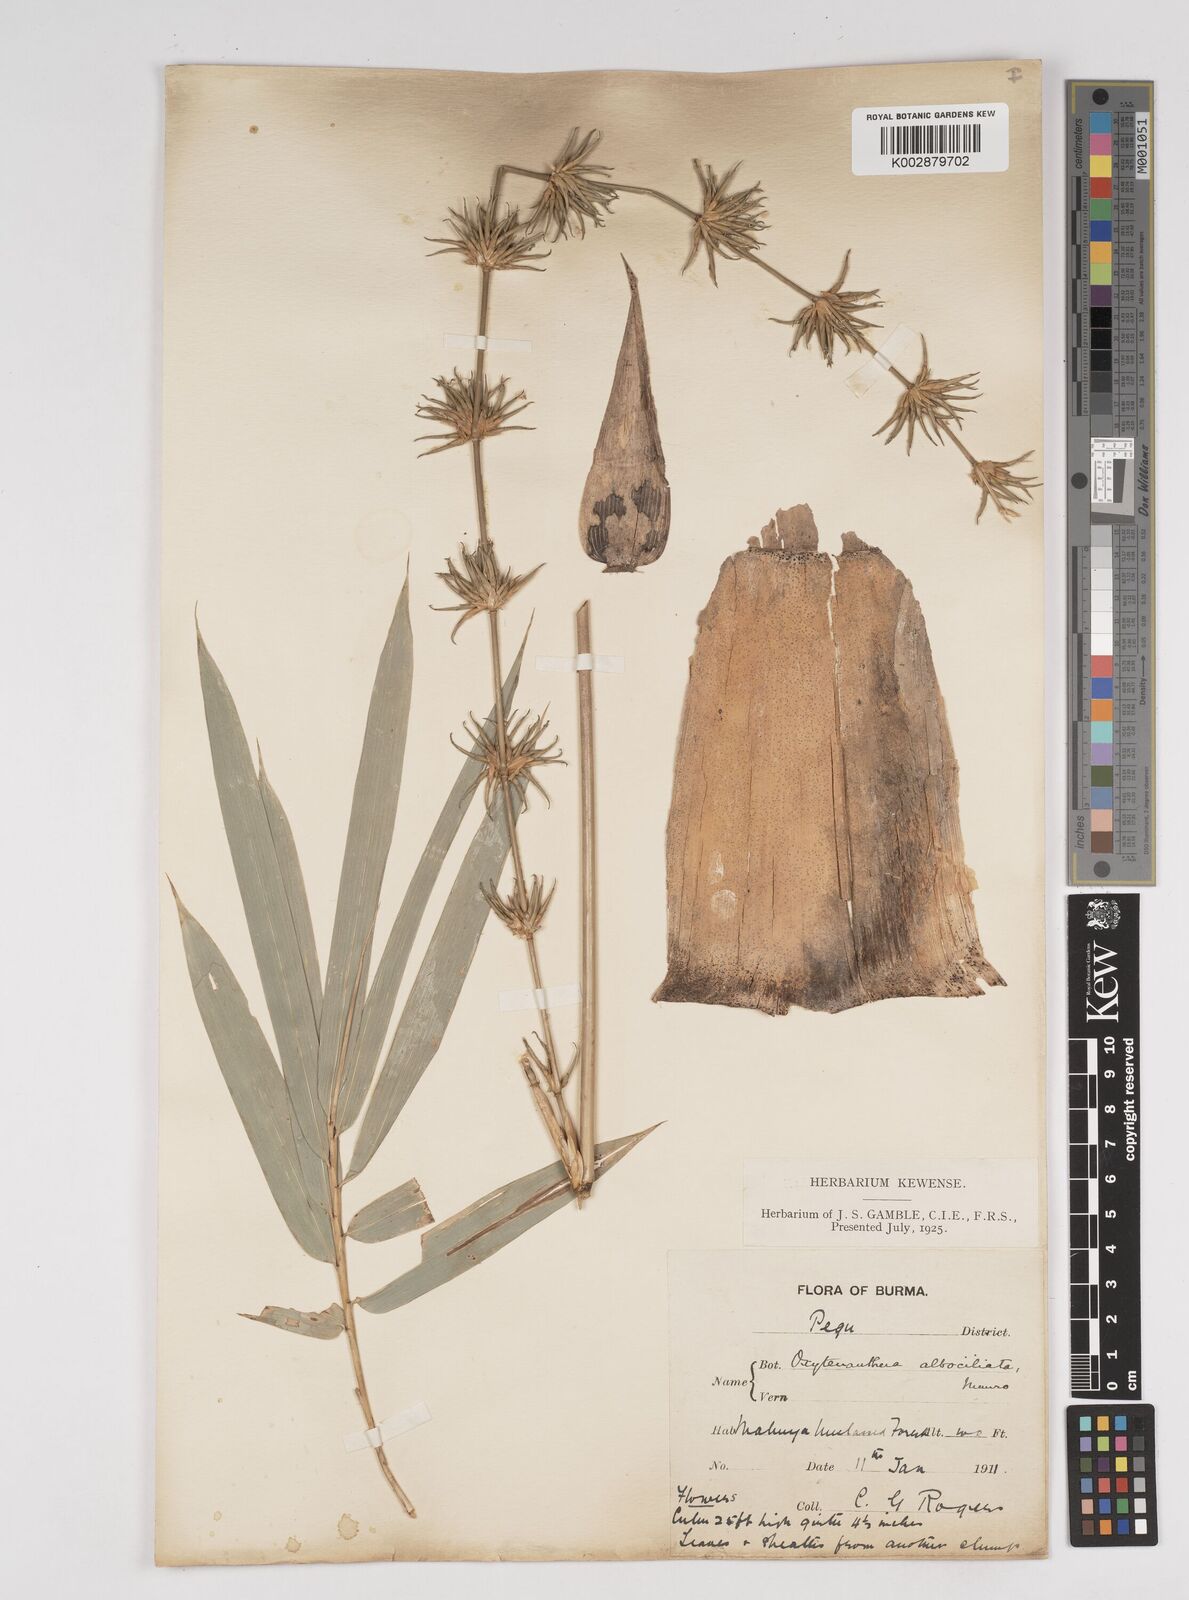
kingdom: Plantae
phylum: Tracheophyta
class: Liliopsida
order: Poales
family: Poaceae
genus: Gigantochloa
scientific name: Gigantochloa albociliata
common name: White-fringe gigantochloa
